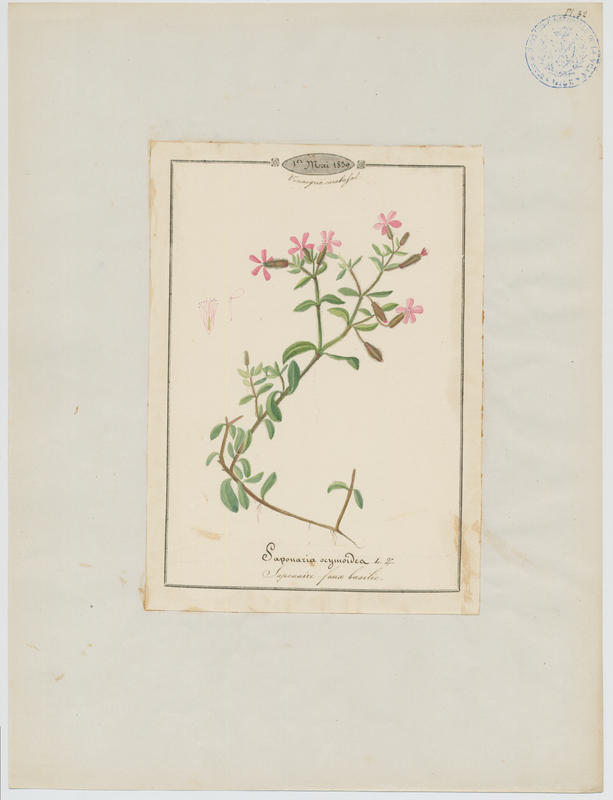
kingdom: Plantae
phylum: Tracheophyta
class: Magnoliopsida
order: Caryophyllales
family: Caryophyllaceae
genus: Saponaria
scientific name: Saponaria ocymoides
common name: Rock soapwort
